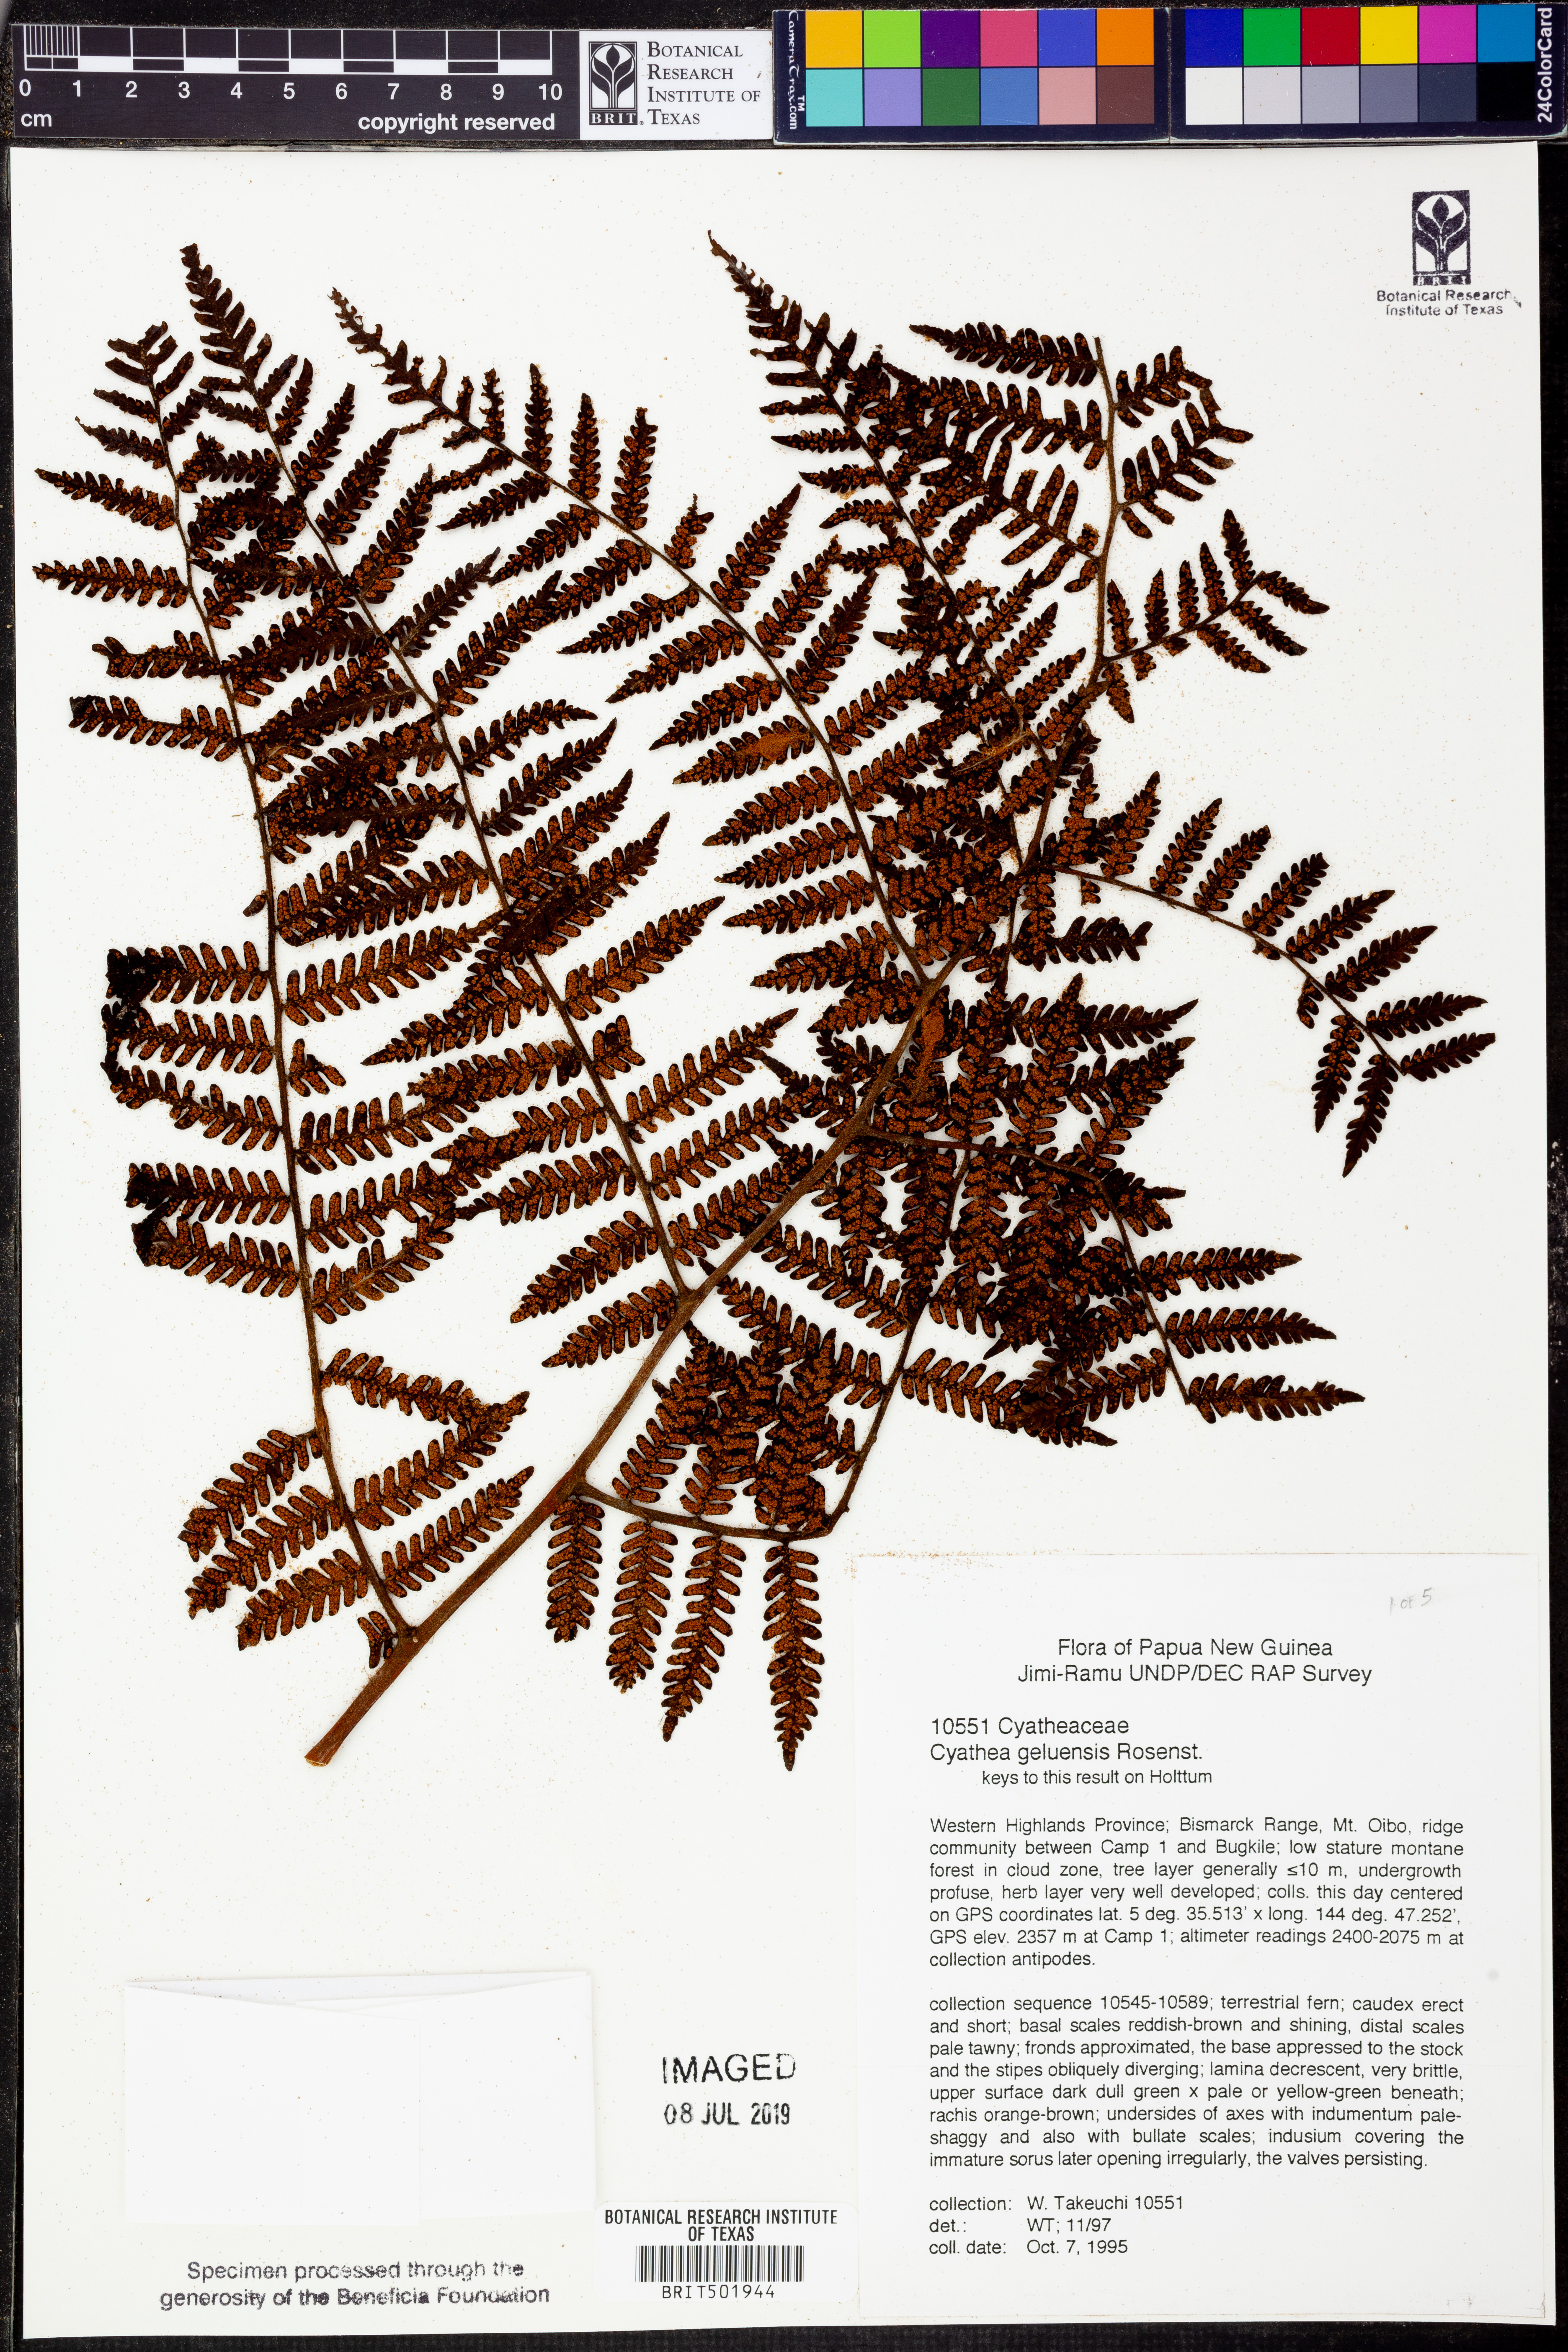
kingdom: Plantae
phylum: Tracheophyta
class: Polypodiopsida
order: Cyatheales
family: Cyatheaceae
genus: Alsophila
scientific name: Alsophila geluensis
